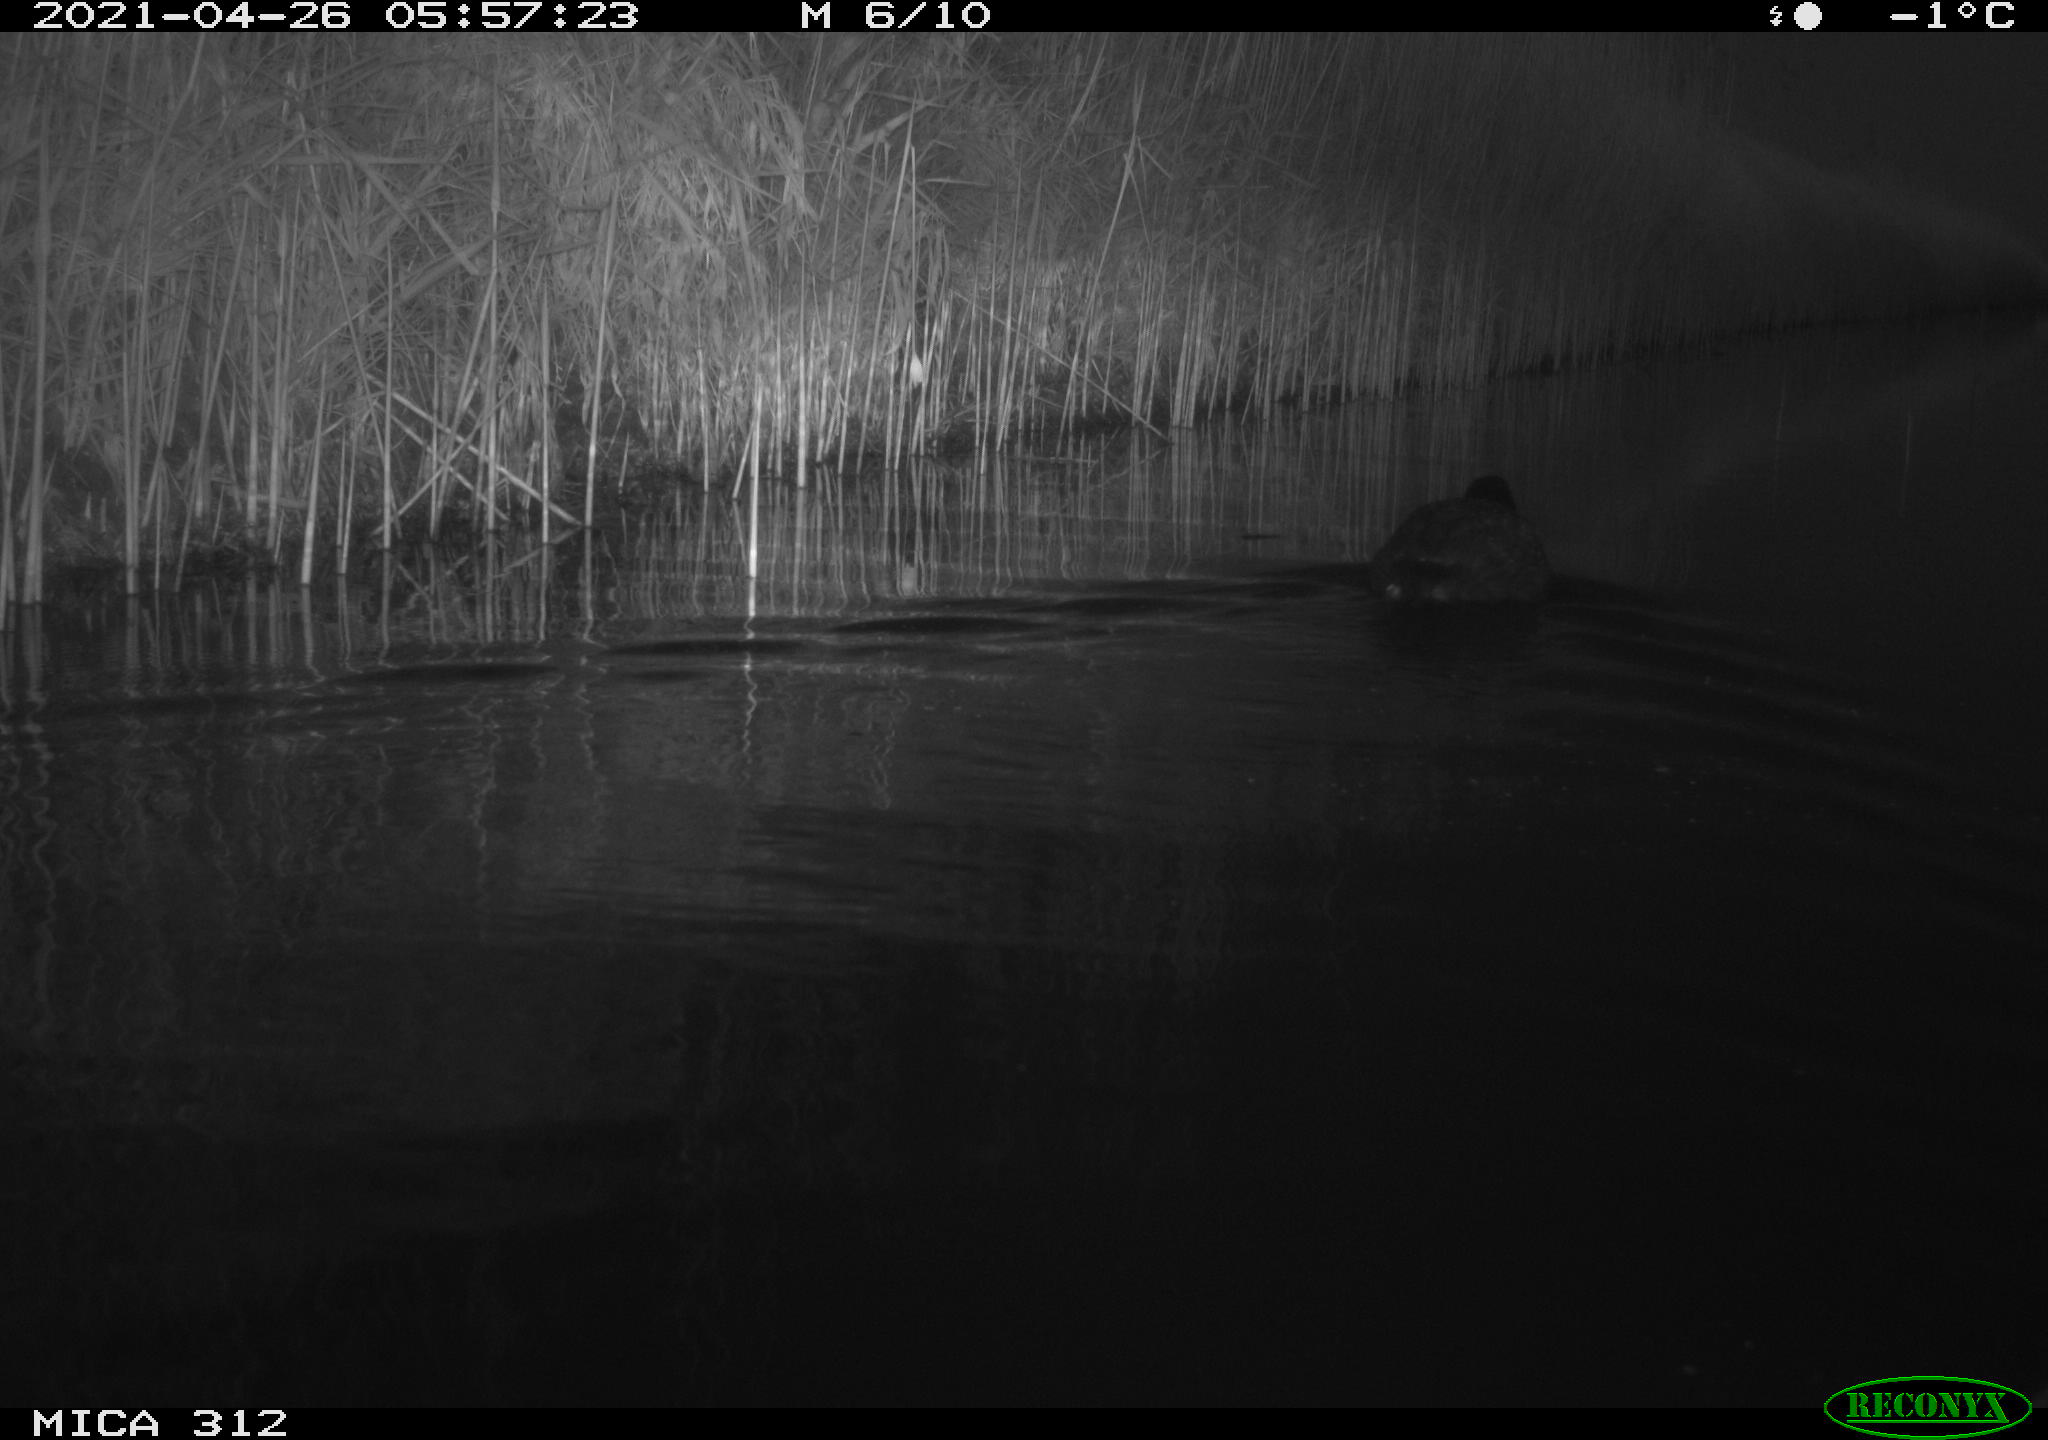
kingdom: Animalia
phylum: Chordata
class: Aves
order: Gruiformes
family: Rallidae
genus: Fulica
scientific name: Fulica atra
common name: Eurasian coot
